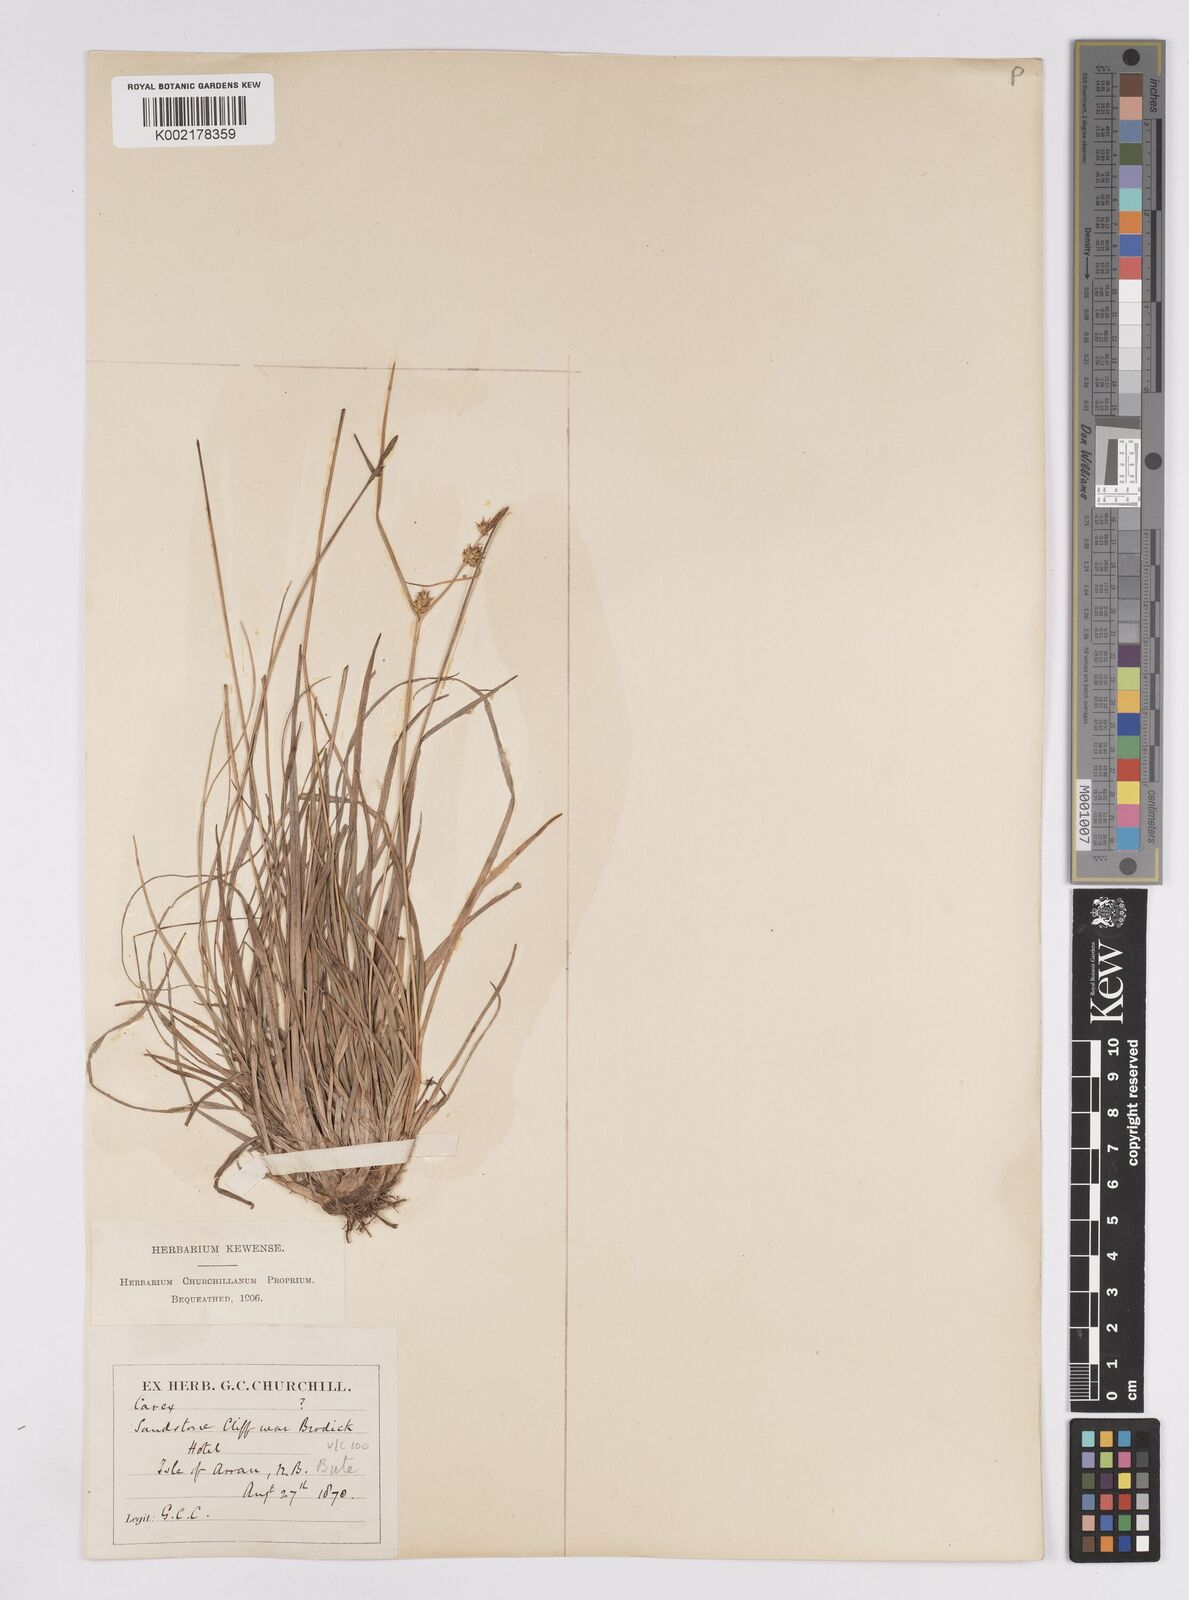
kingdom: Plantae
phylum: Tracheophyta
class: Liliopsida
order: Poales
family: Cyperaceae
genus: Carex
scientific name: Carex demissa
